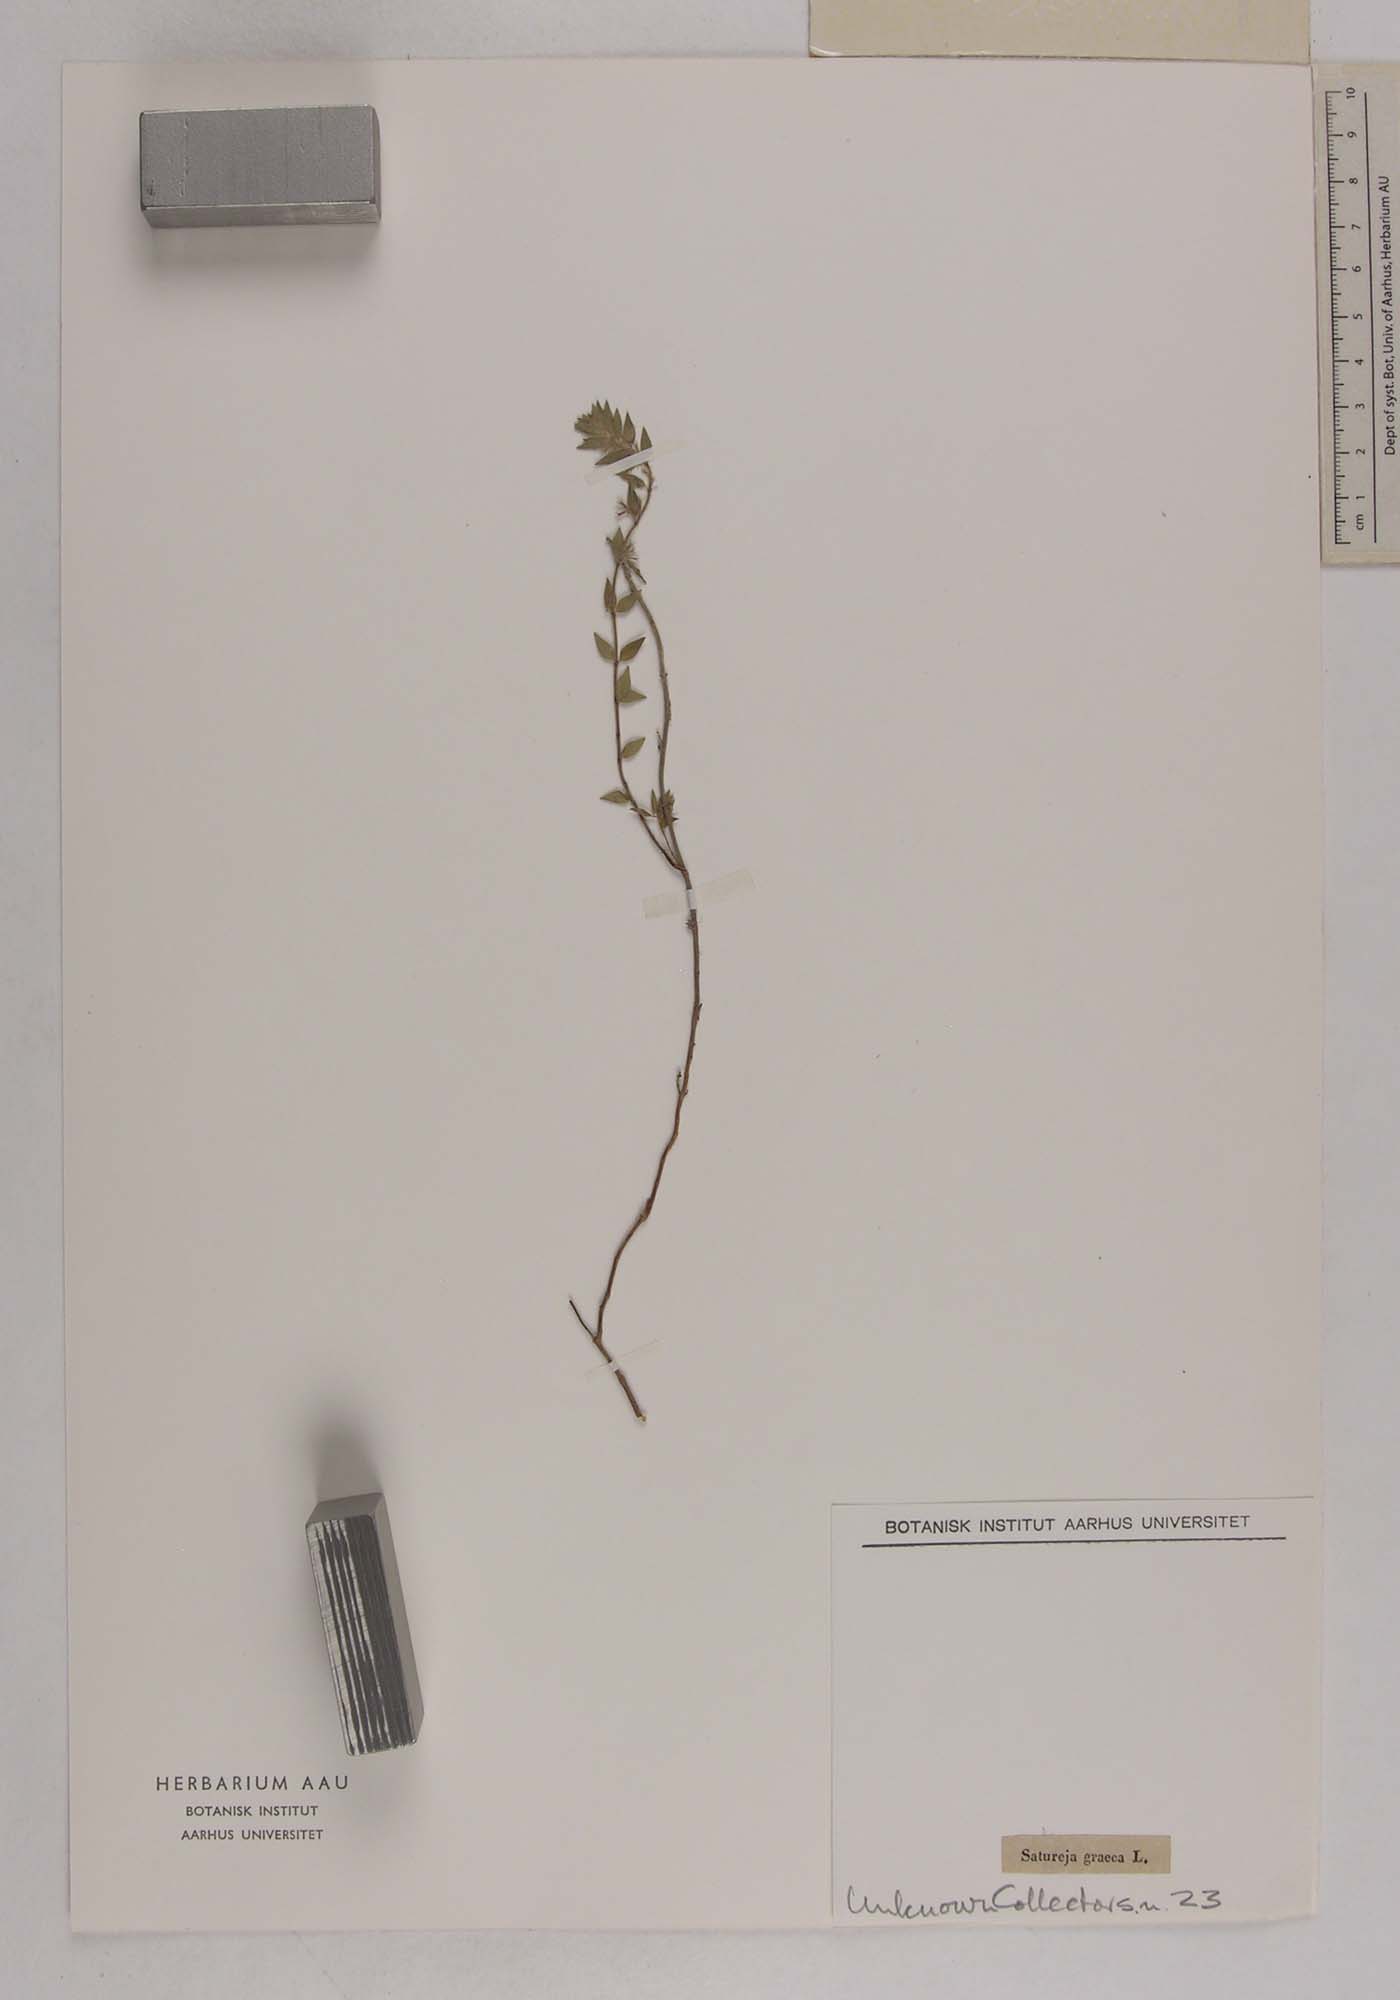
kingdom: Plantae
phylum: Tracheophyta
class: Magnoliopsida
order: Lamiales
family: Lamiaceae
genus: Micromeria
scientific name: Micromeria graeca
